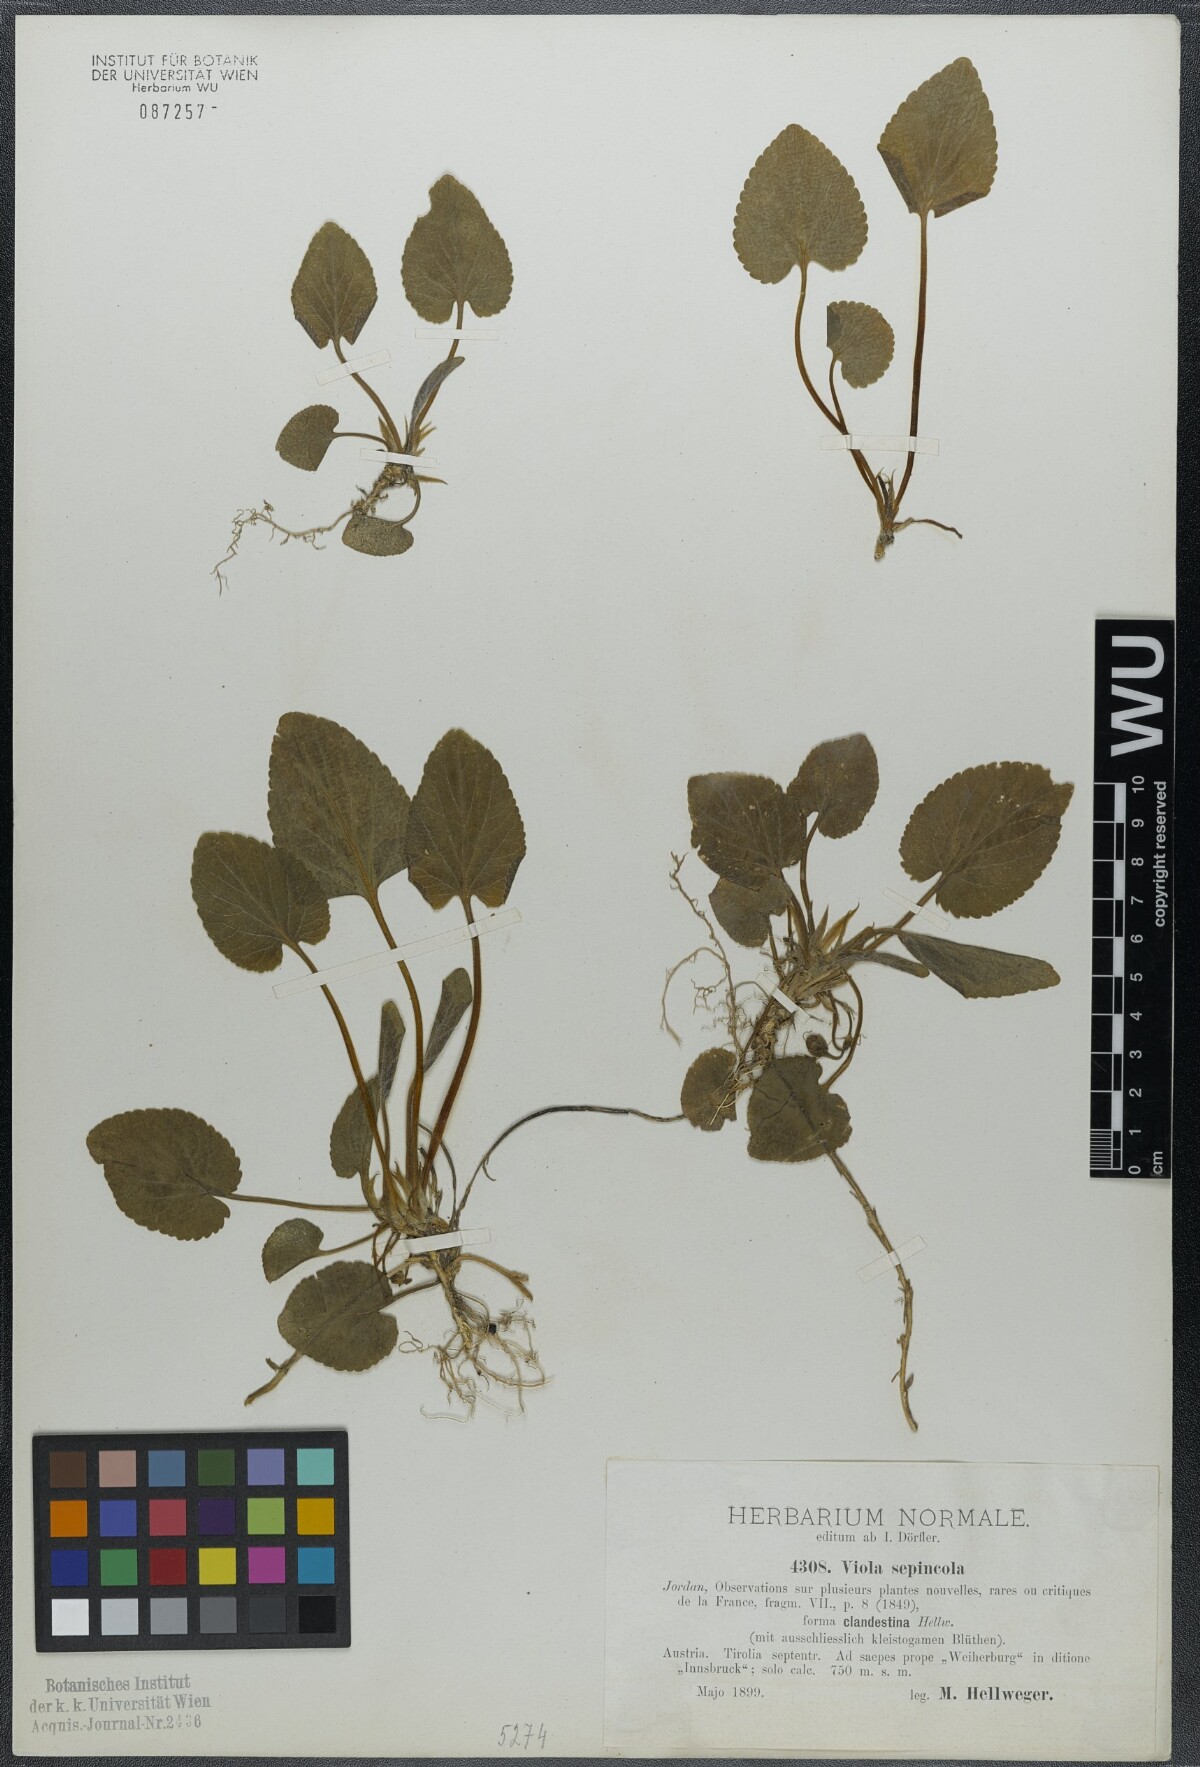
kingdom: Plantae
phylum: Tracheophyta
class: Magnoliopsida
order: Malpighiales
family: Violaceae
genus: Viola
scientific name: Viola suavis
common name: Russian violet
